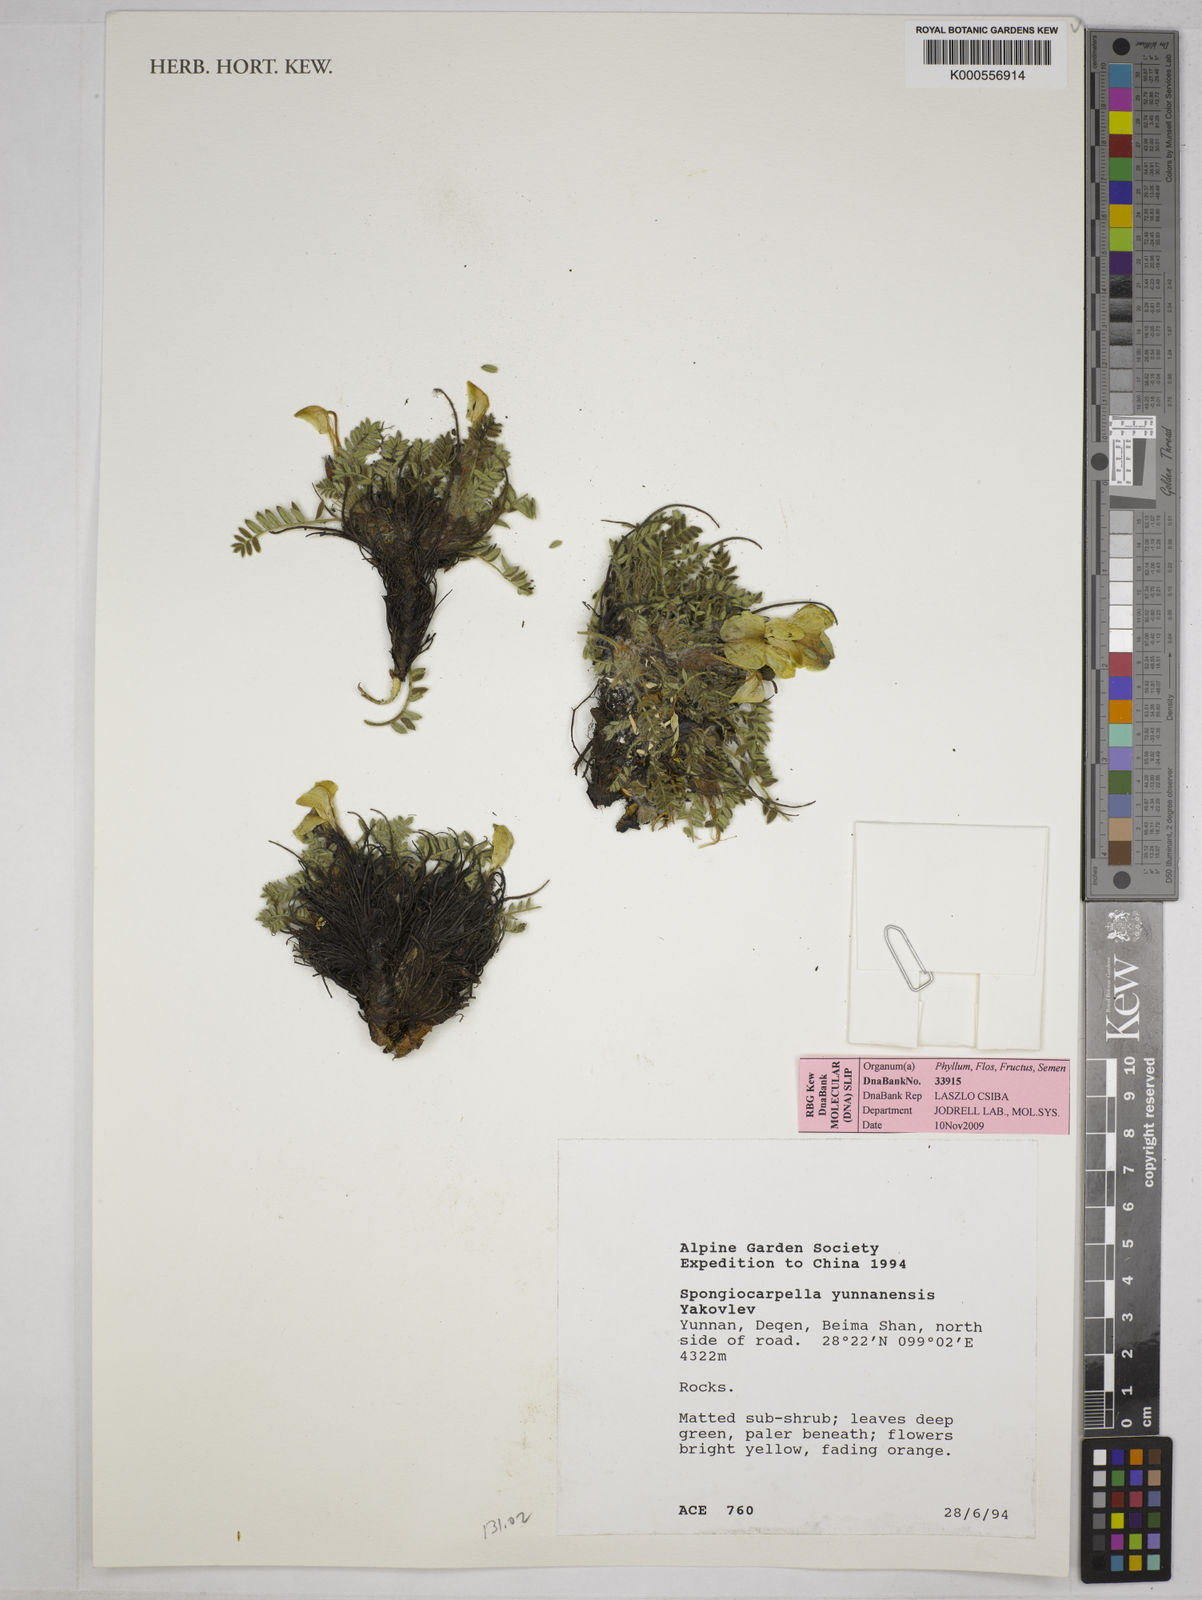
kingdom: Plantae
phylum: Tracheophyta
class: Magnoliopsida
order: Fabales
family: Fabaceae
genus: Chesneya
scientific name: Chesneya yunnanensis
